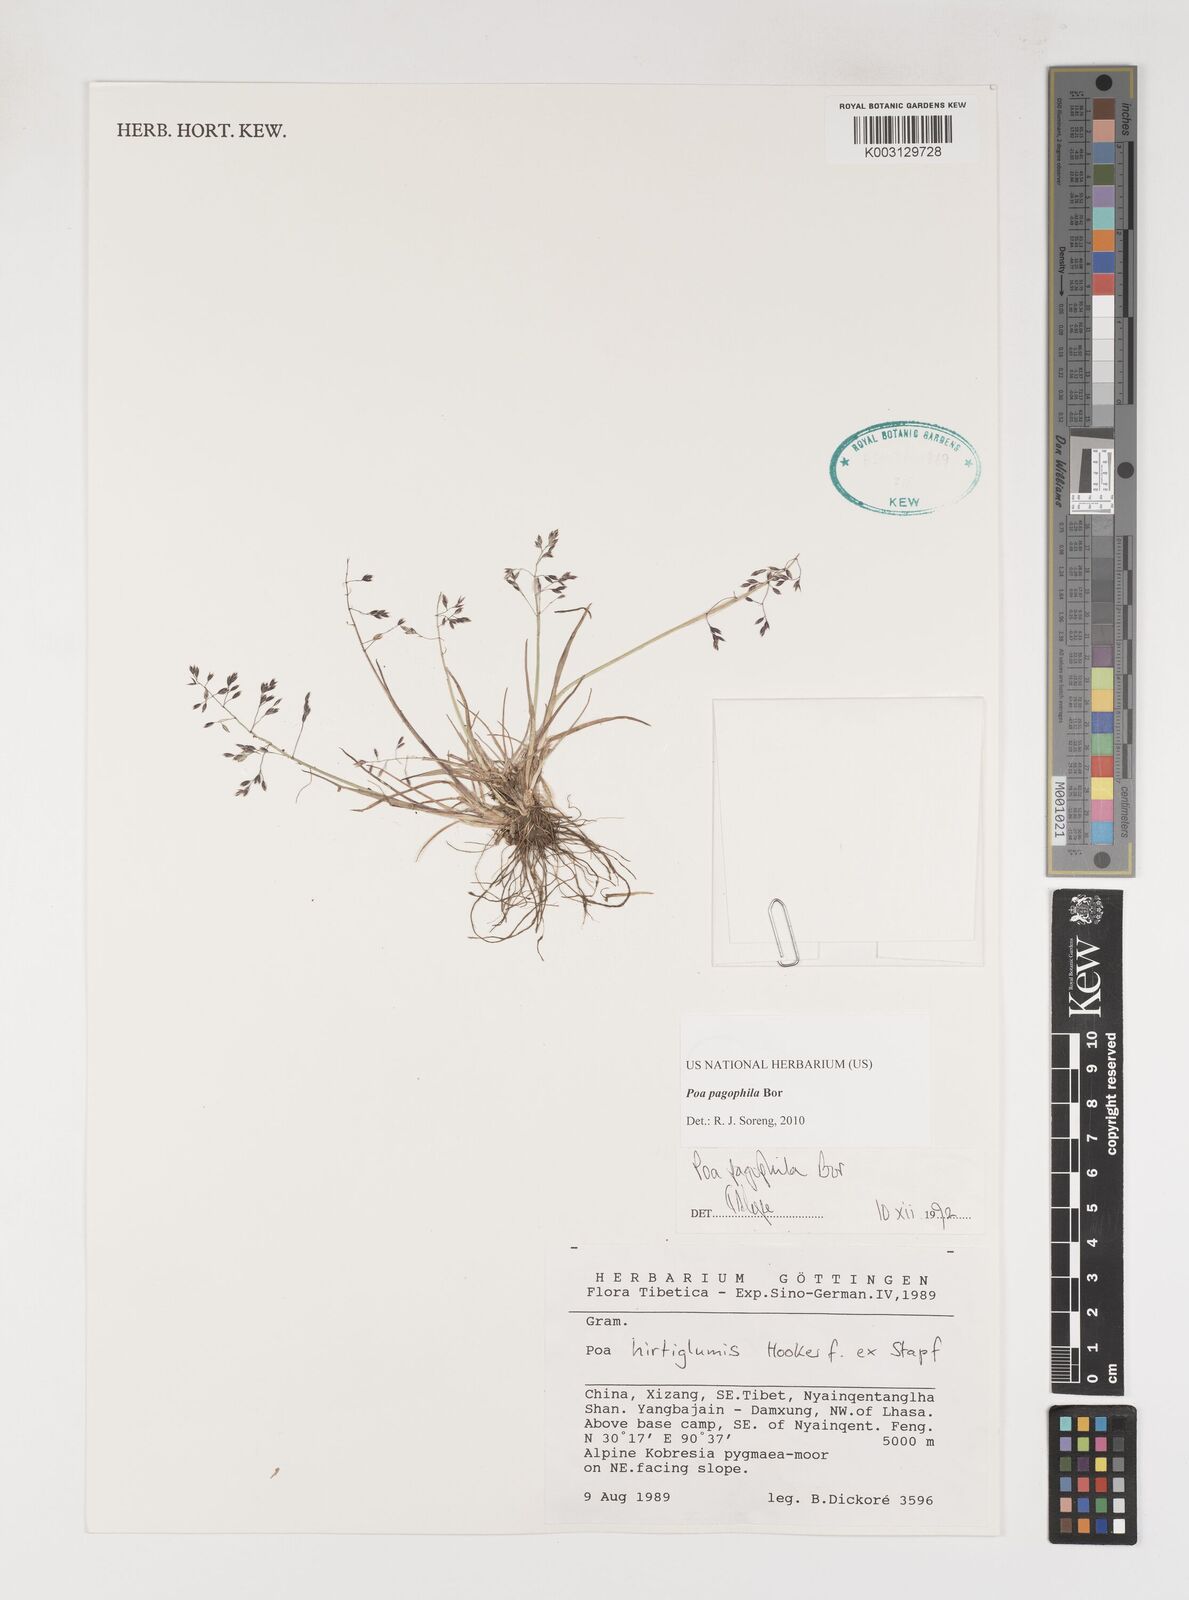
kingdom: Plantae
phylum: Tracheophyta
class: Liliopsida
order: Poales
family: Poaceae
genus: Poa
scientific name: Poa pagophila
